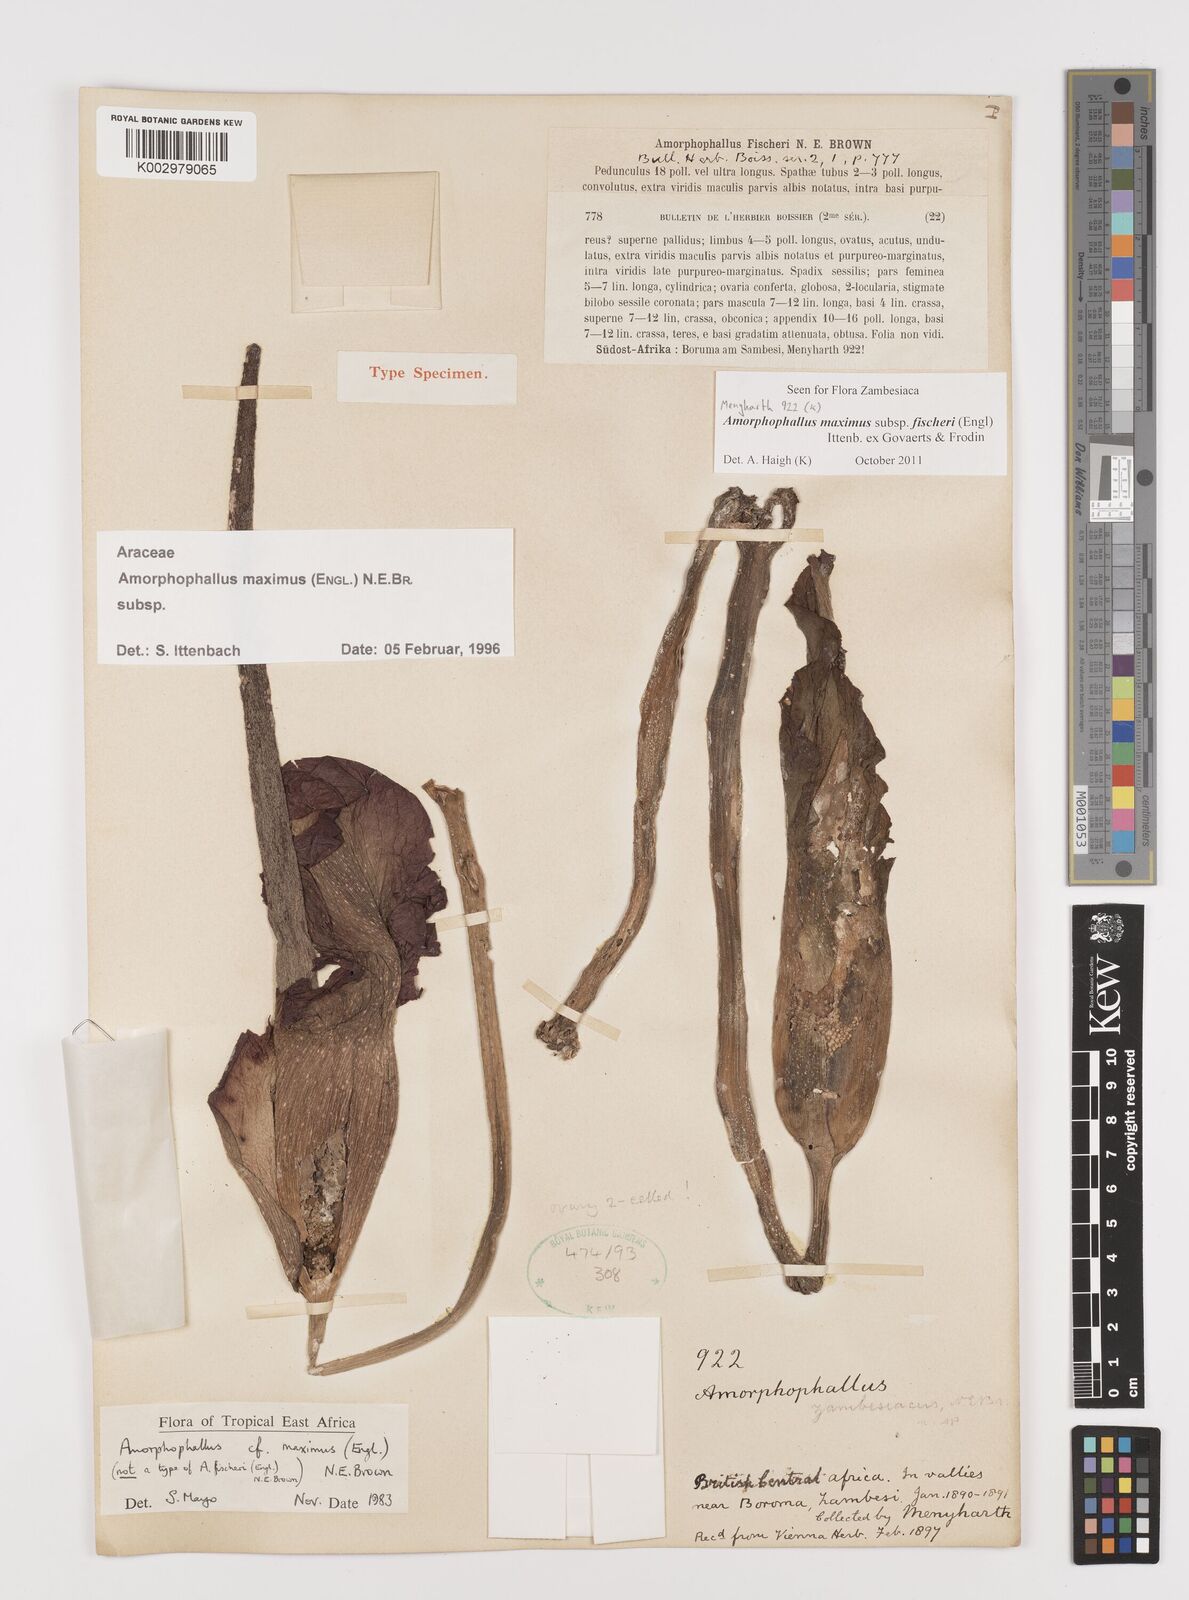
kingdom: Plantae
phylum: Tracheophyta
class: Liliopsida
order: Alismatales
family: Araceae
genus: Amorphophallus
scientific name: Amorphophallus maximus
